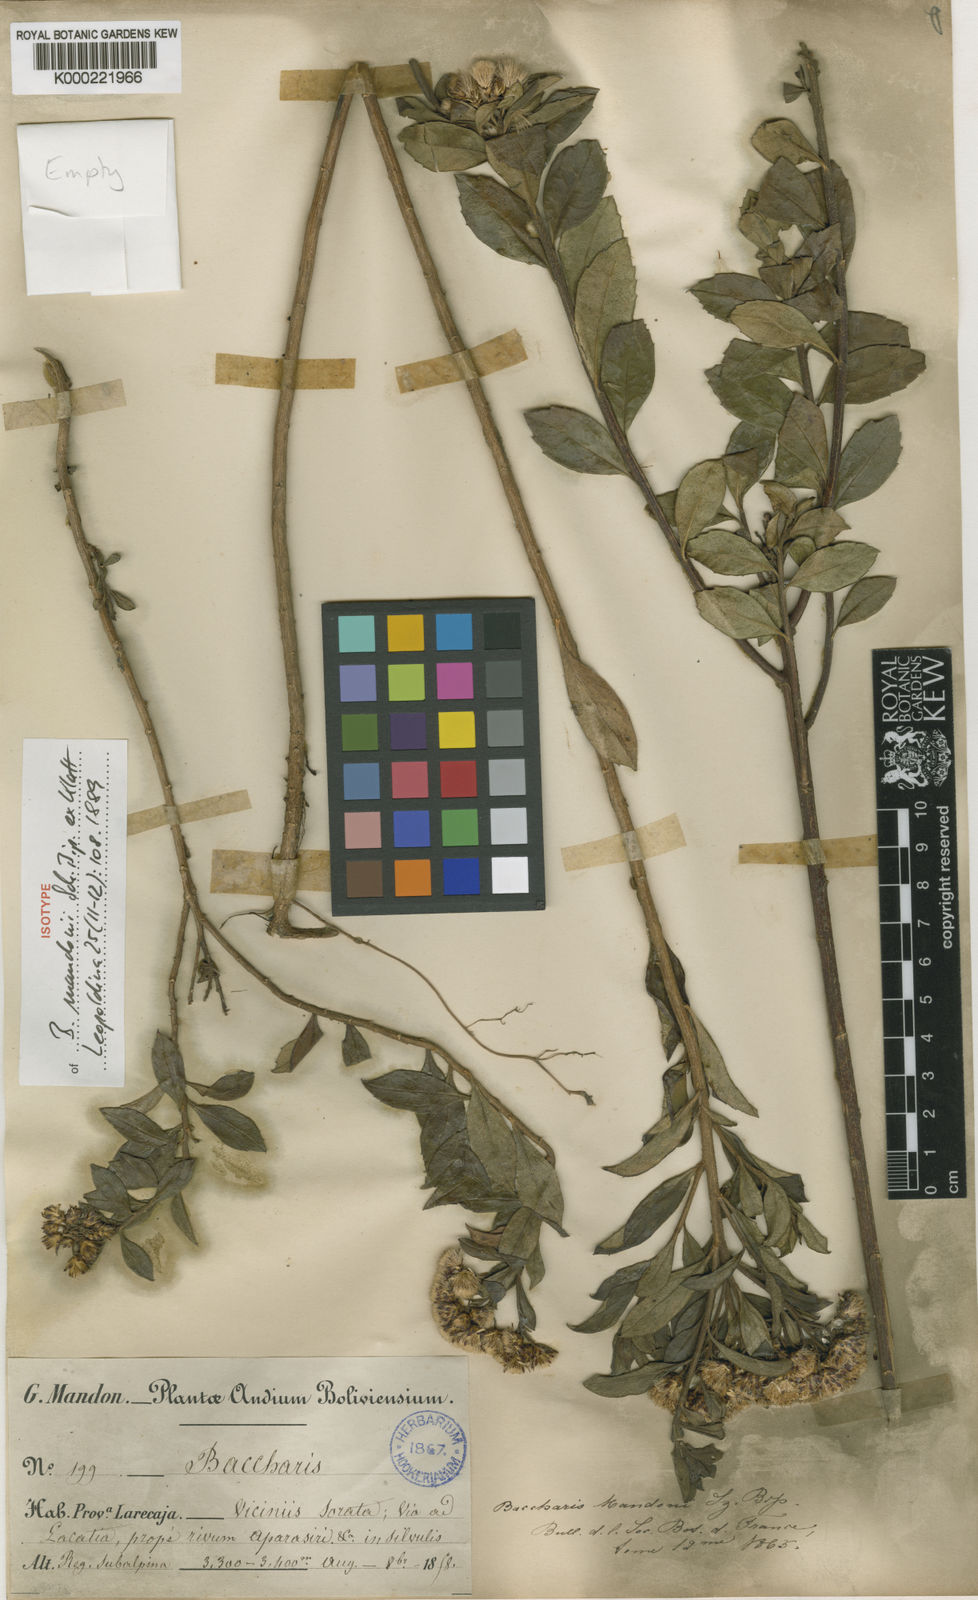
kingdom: Plantae
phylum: Tracheophyta
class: Magnoliopsida
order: Asterales
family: Asteraceae
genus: Baccharis
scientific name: Baccharis
